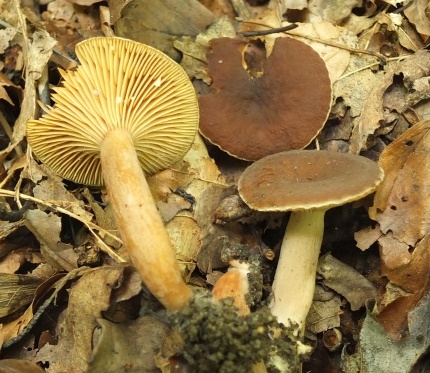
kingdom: Fungi
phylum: Basidiomycota
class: Agaricomycetes
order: Russulales
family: Russulaceae
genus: Lactarius
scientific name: Lactarius serifluus
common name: tæge-mælkehat
